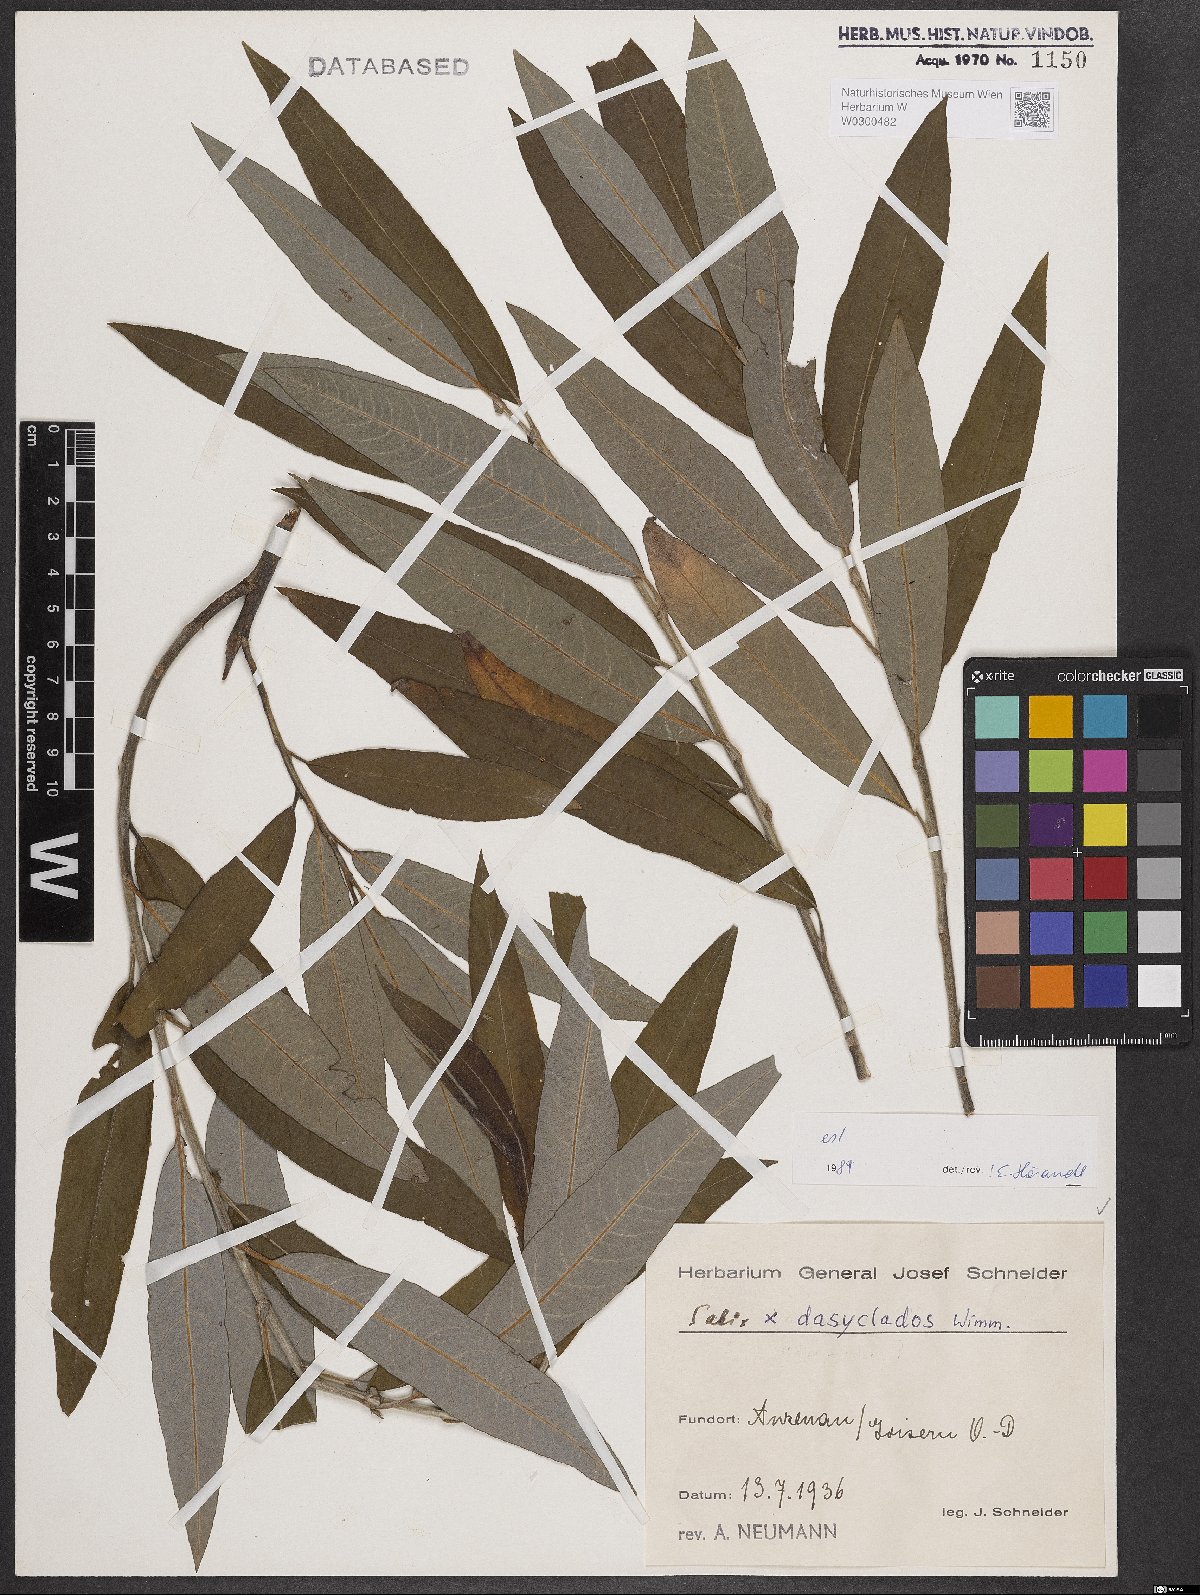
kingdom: Plantae
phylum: Tracheophyta
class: Magnoliopsida
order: Malpighiales
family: Salicaceae
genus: Salix
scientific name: Salix gmelinii
